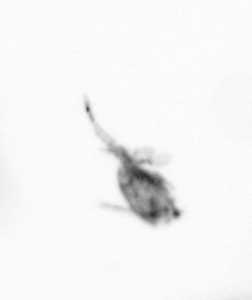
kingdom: Animalia
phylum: Arthropoda
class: Copepoda
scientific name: Copepoda
